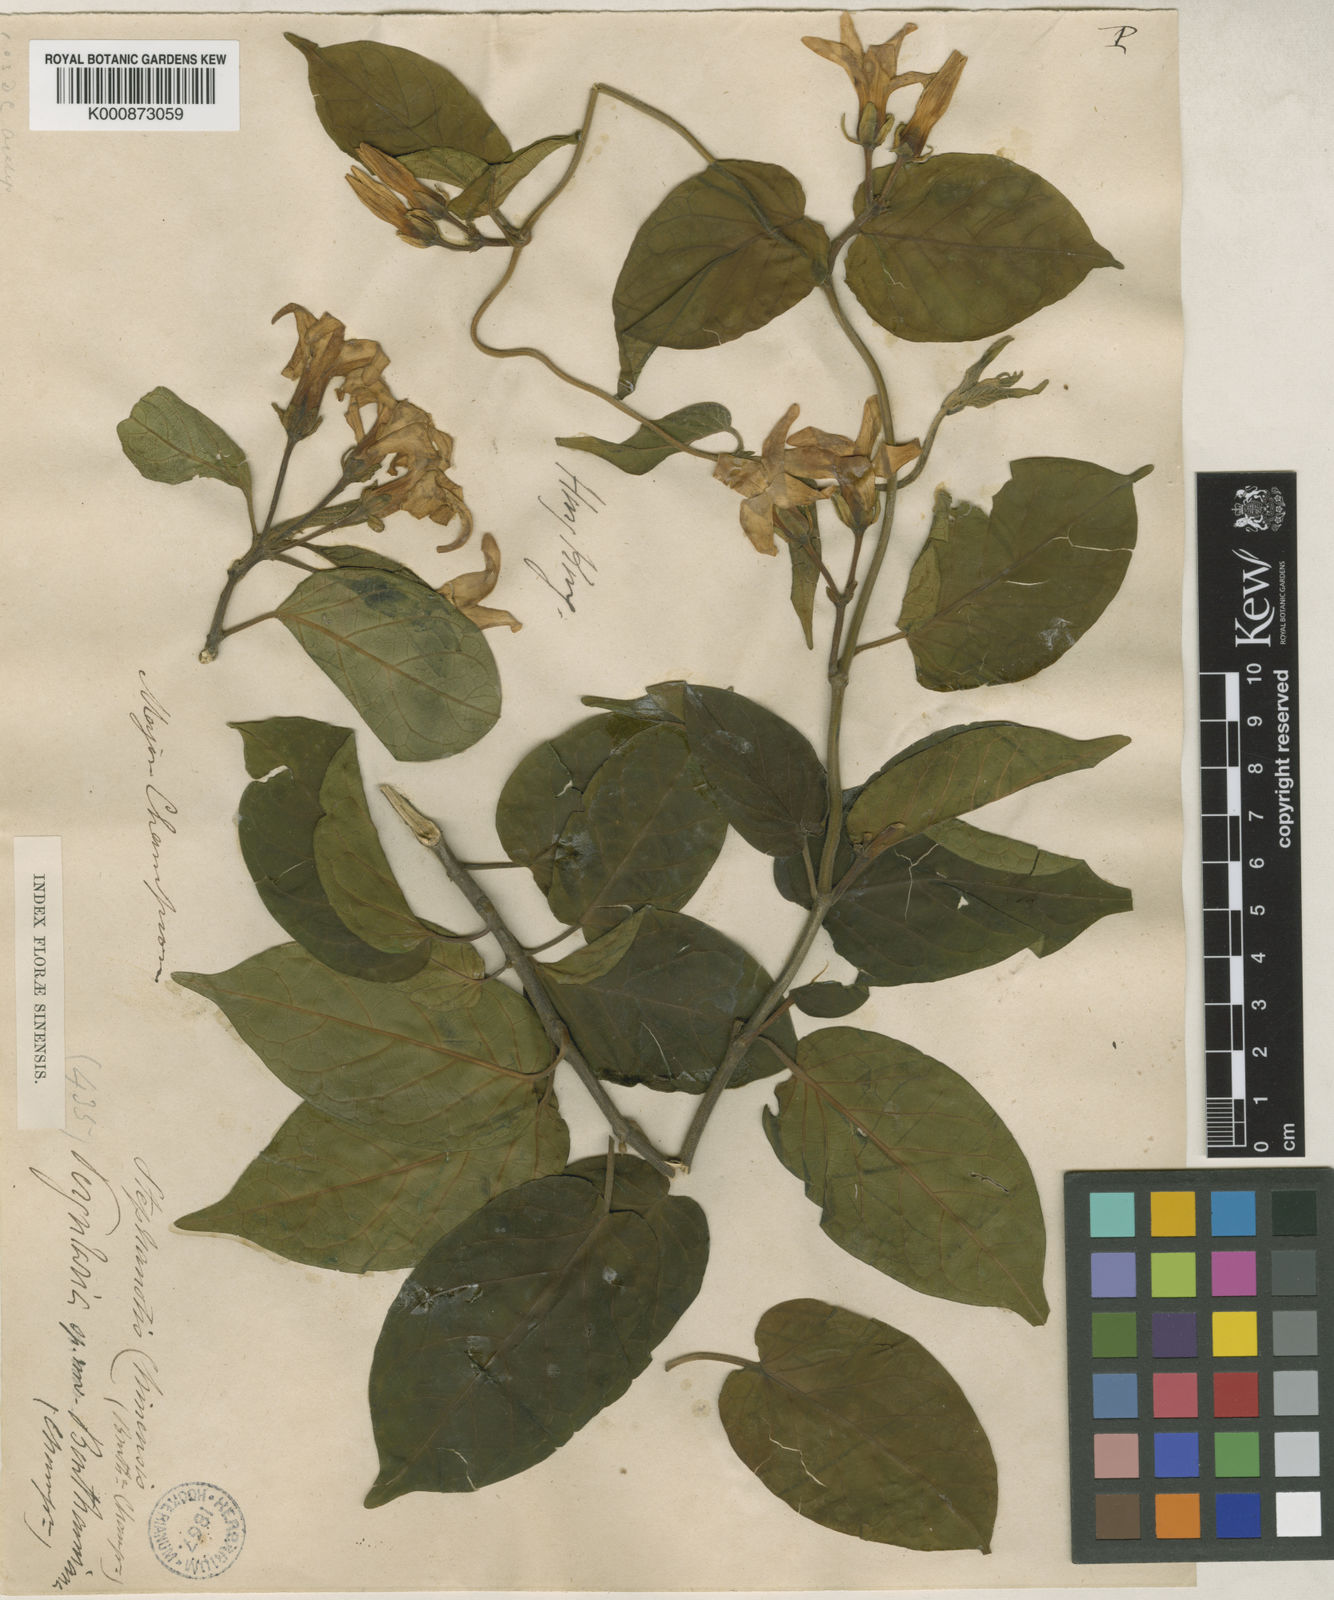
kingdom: Plantae
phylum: Tracheophyta
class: Magnoliopsida
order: Myrtales
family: Melastomataceae
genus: Miconia
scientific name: Miconia dentata
